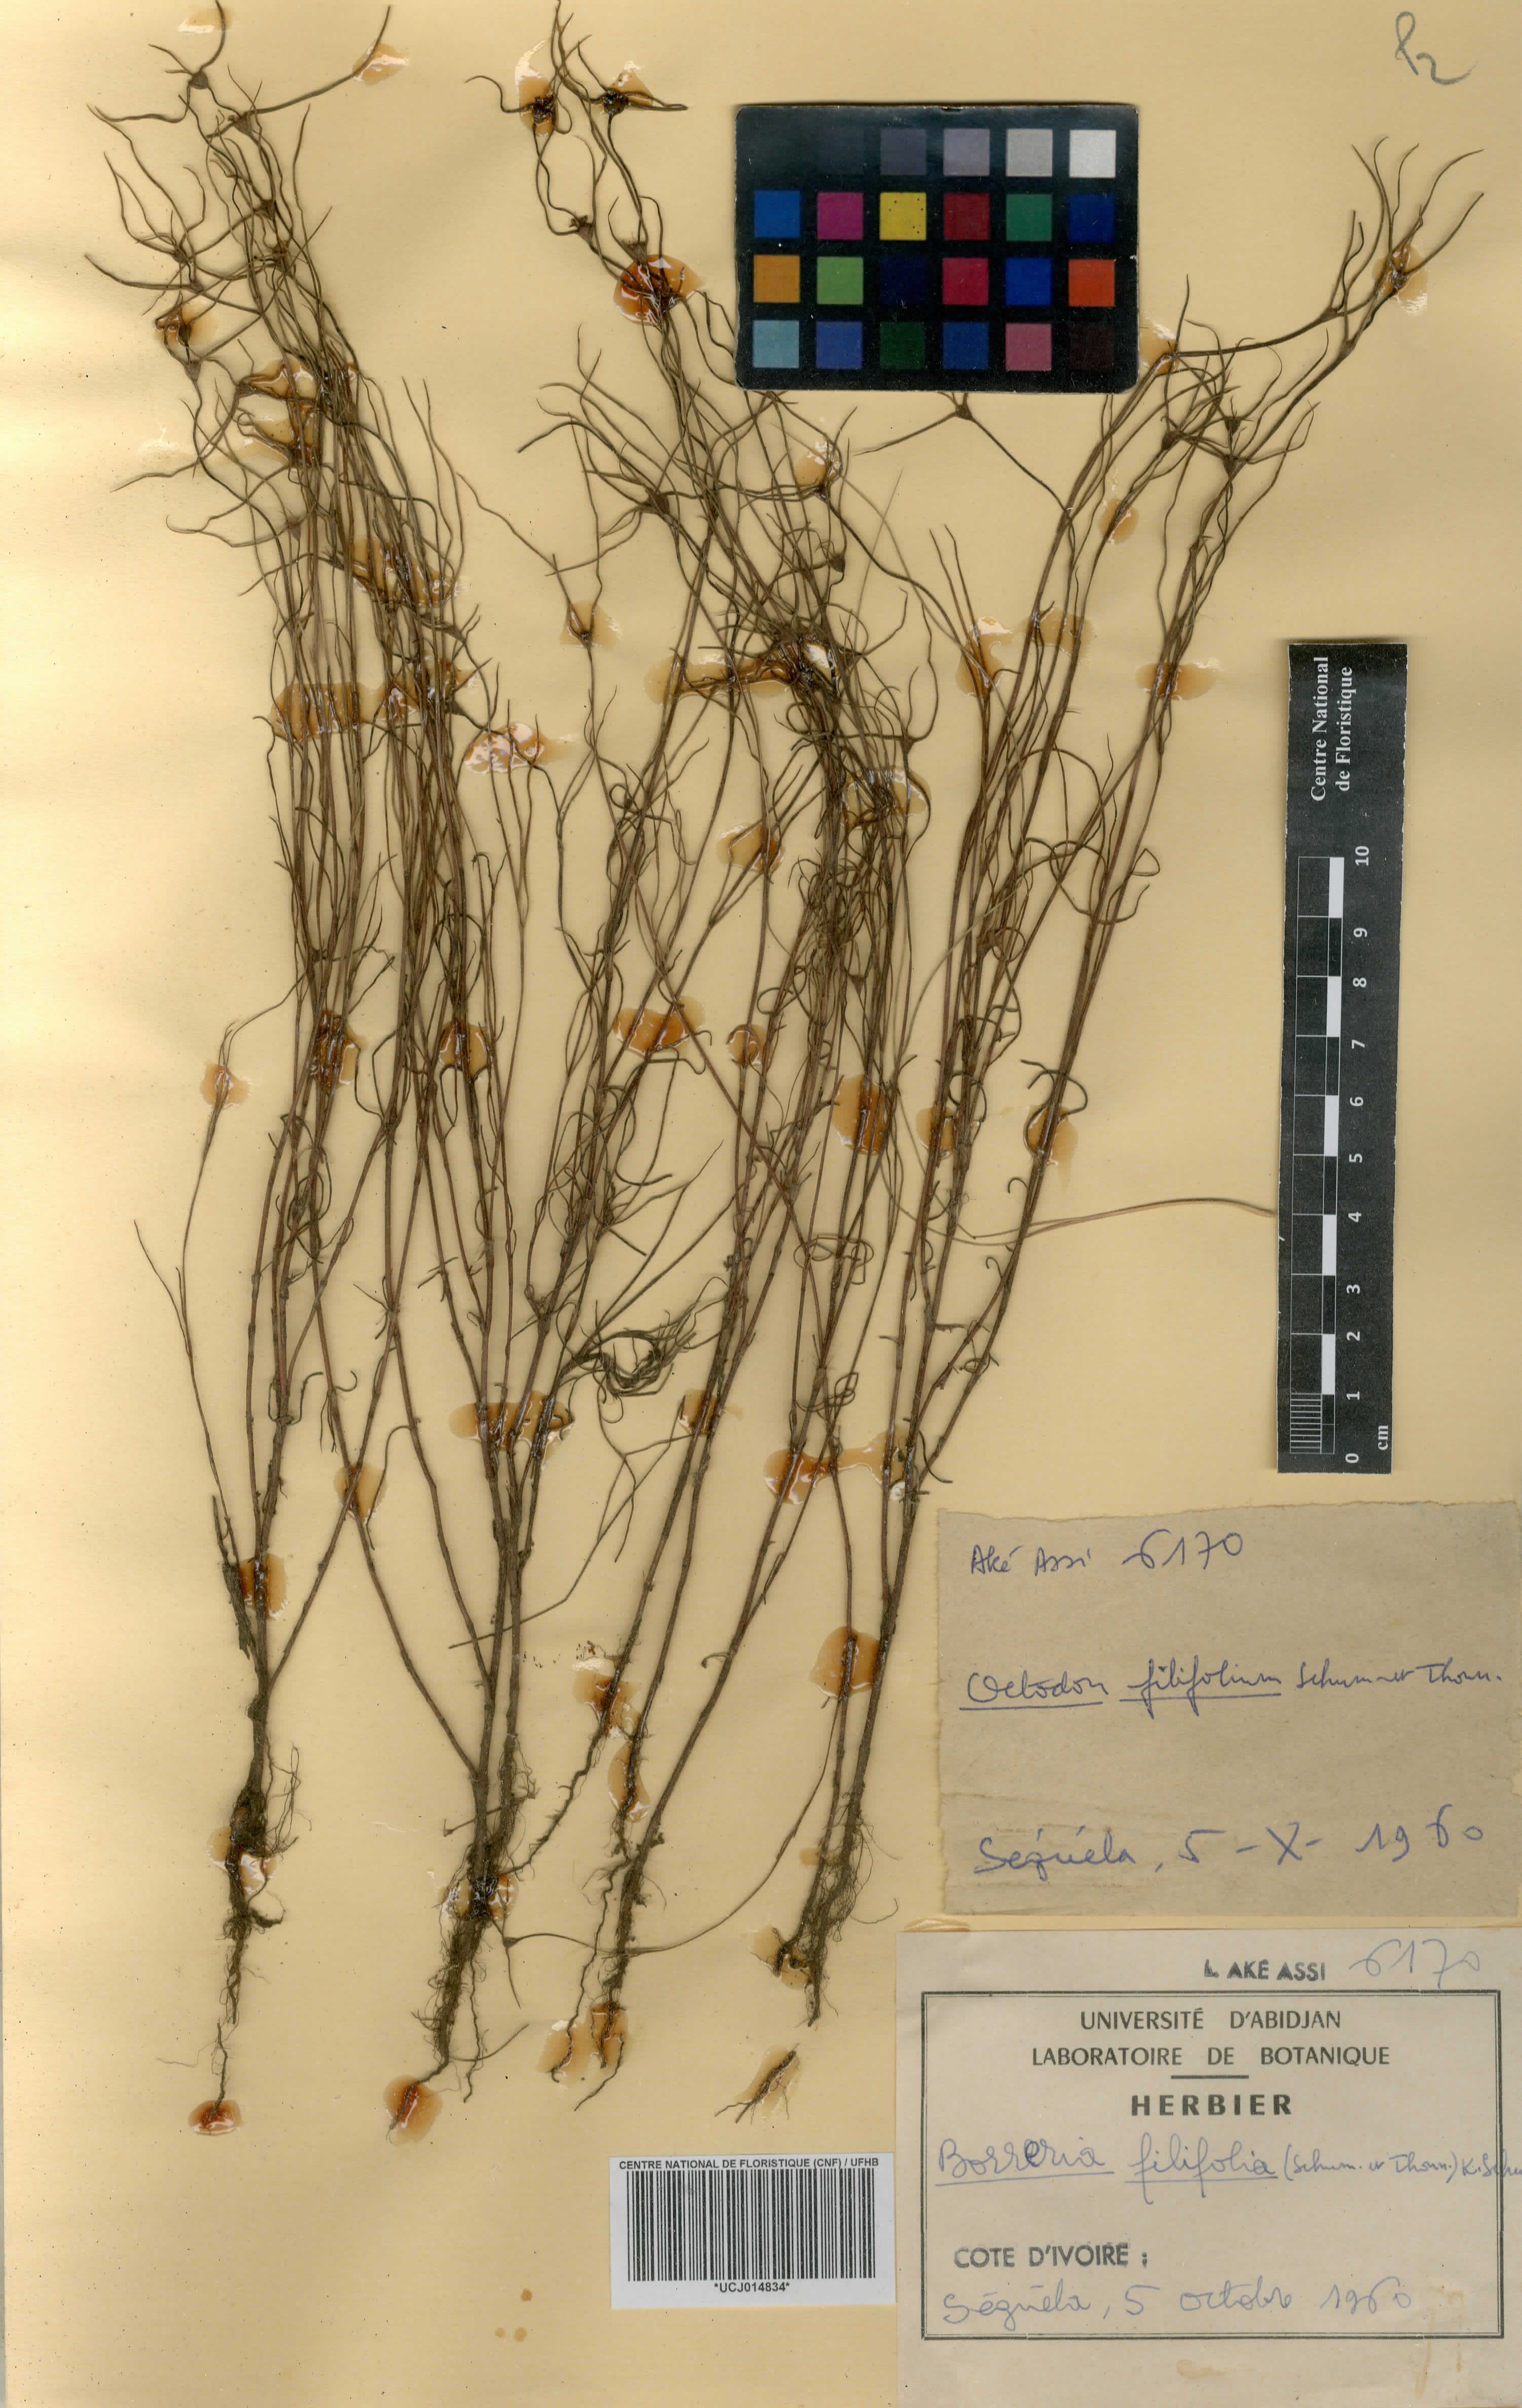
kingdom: Plantae
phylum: Tracheophyta
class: Magnoliopsida
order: Gentianales
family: Rubiaceae
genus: Spermacoce
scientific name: Spermacoce filifolia
